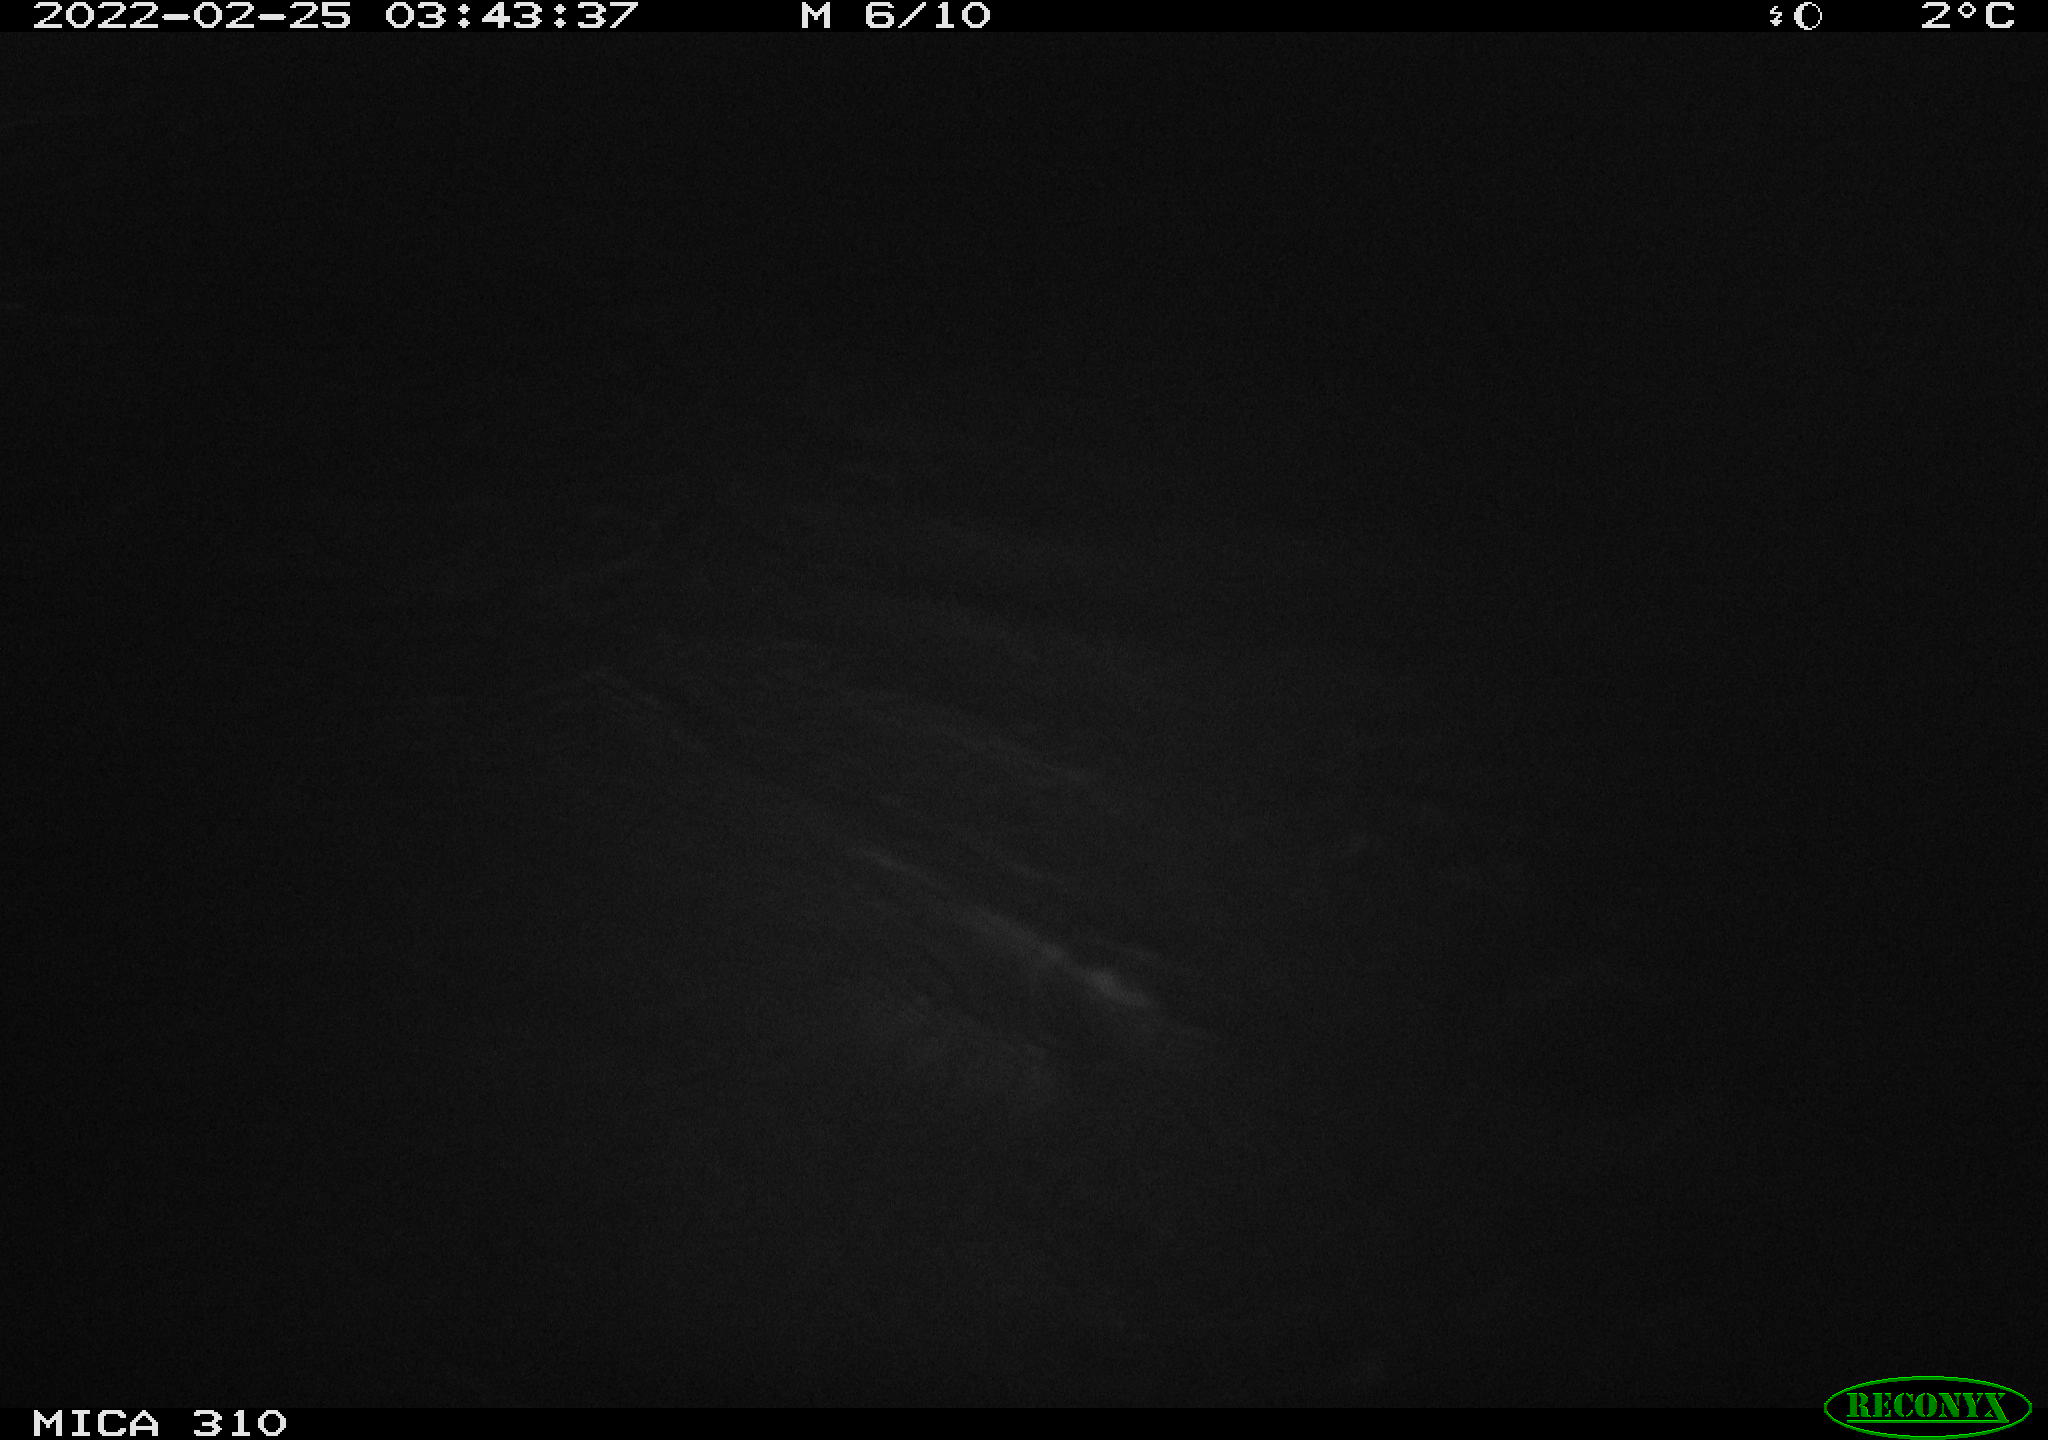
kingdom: Animalia
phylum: Chordata
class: Mammalia
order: Rodentia
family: Cricetidae
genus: Ondatra
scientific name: Ondatra zibethicus
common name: Muskrat
